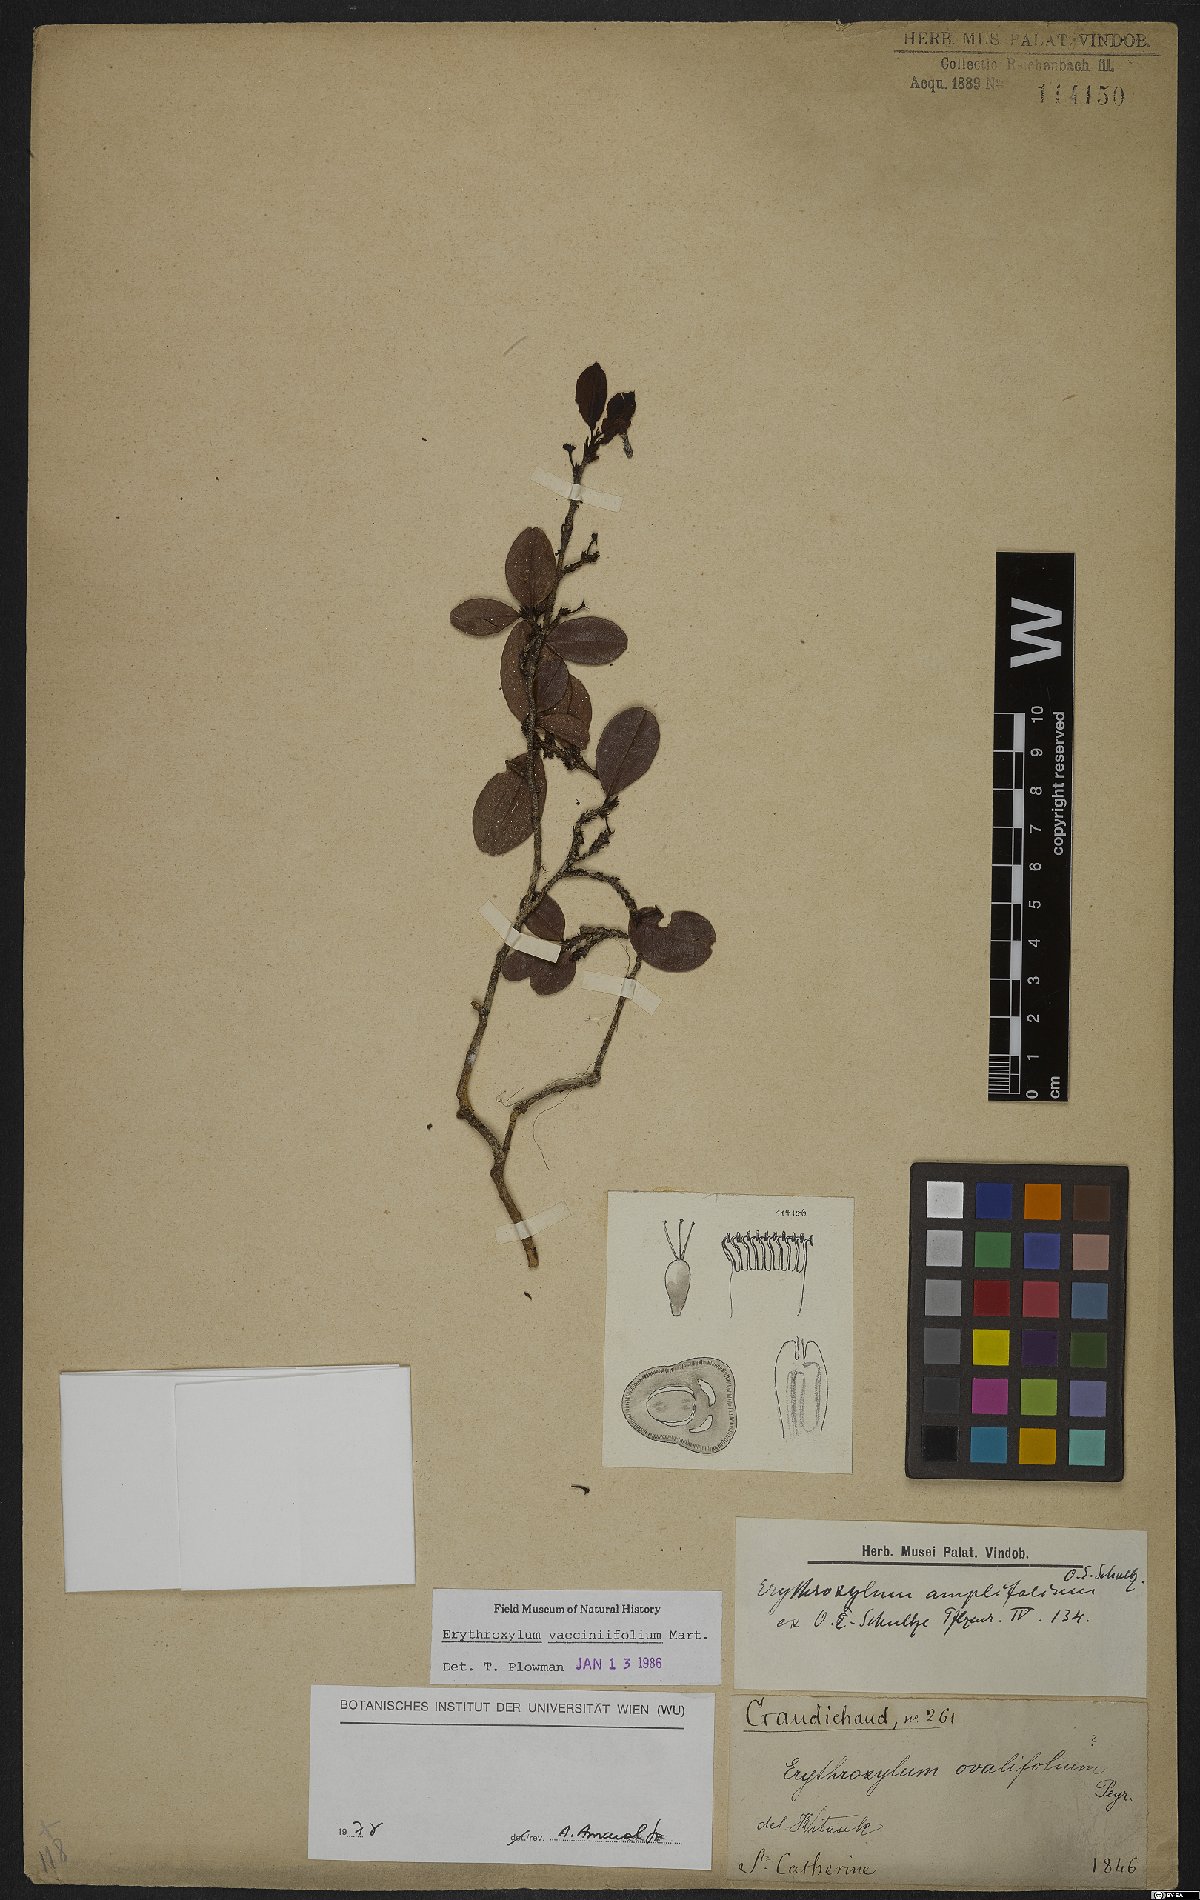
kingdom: Plantae
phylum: Tracheophyta
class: Magnoliopsida
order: Malpighiales
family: Erythroxylaceae
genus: Erythroxylum
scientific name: Erythroxylum vaccinifolium
